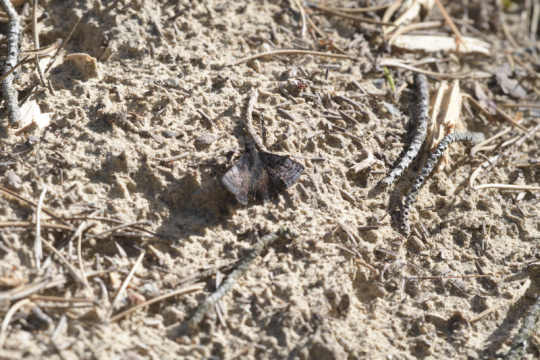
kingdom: Animalia
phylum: Arthropoda
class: Insecta
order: Lepidoptera
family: Hesperiidae
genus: Erynnis
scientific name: Erynnis icelus
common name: Dreamy Duskywing
